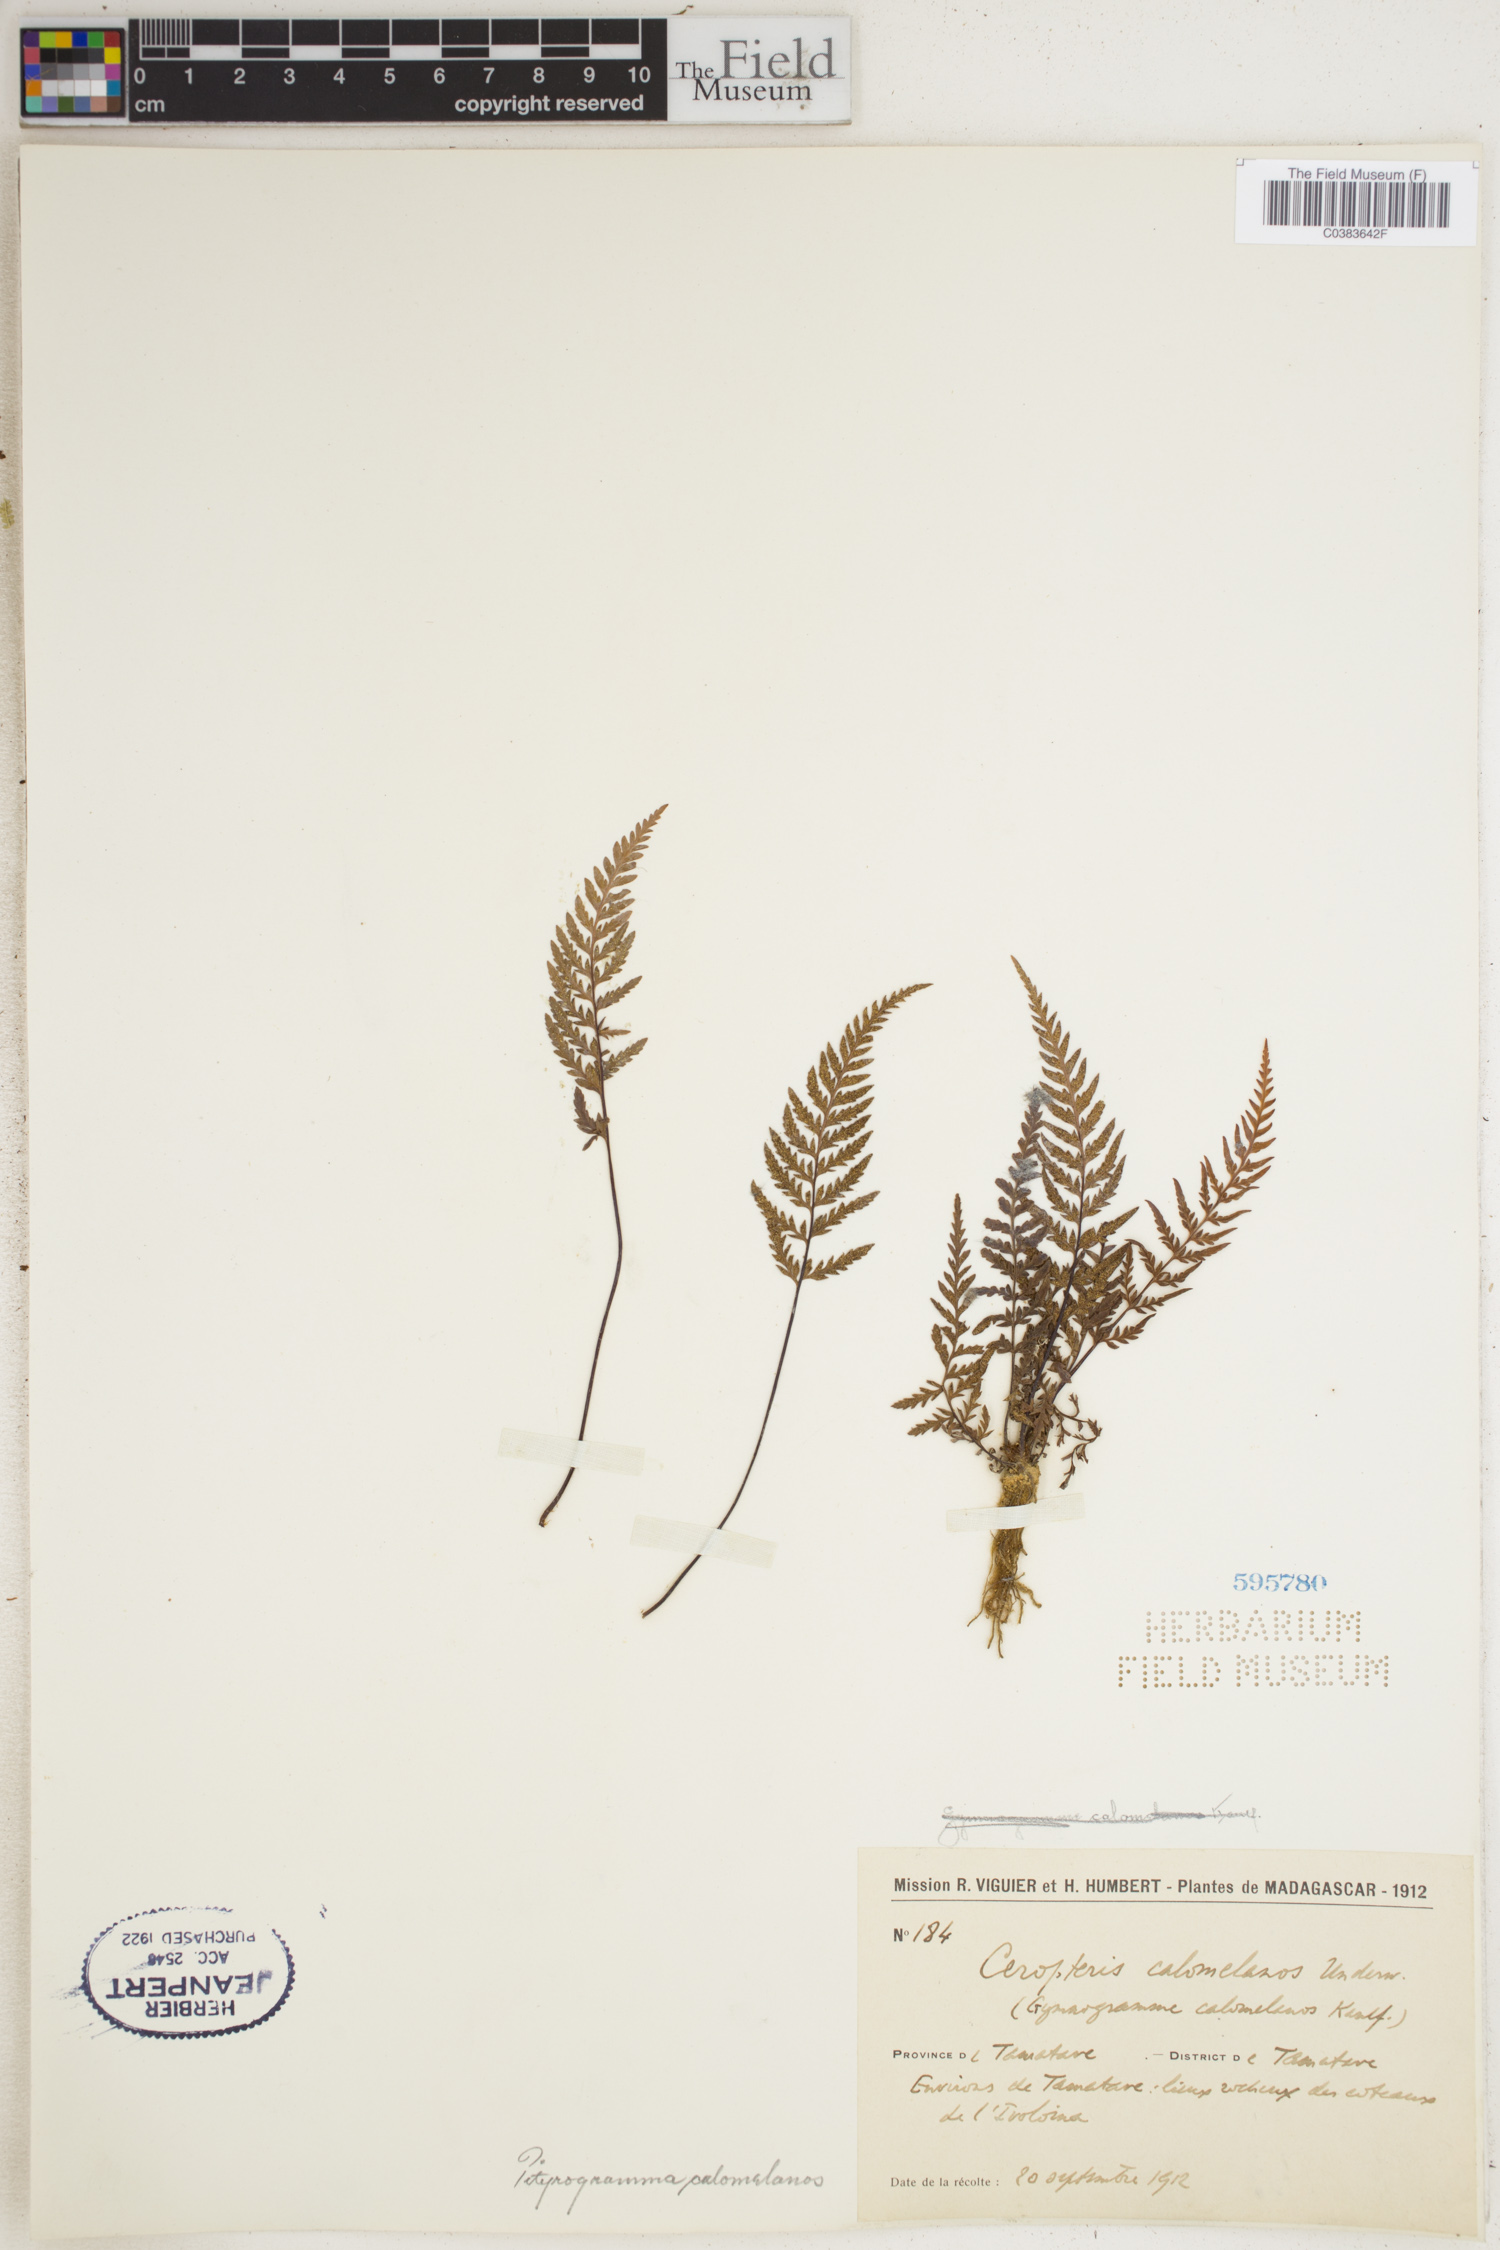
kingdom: Plantae
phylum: Tracheophyta
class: Polypodiopsida
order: Polypodiales
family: Pteridaceae
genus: Pityrogramma
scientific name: Pityrogramma calomelanos
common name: Dixie silverback fern
